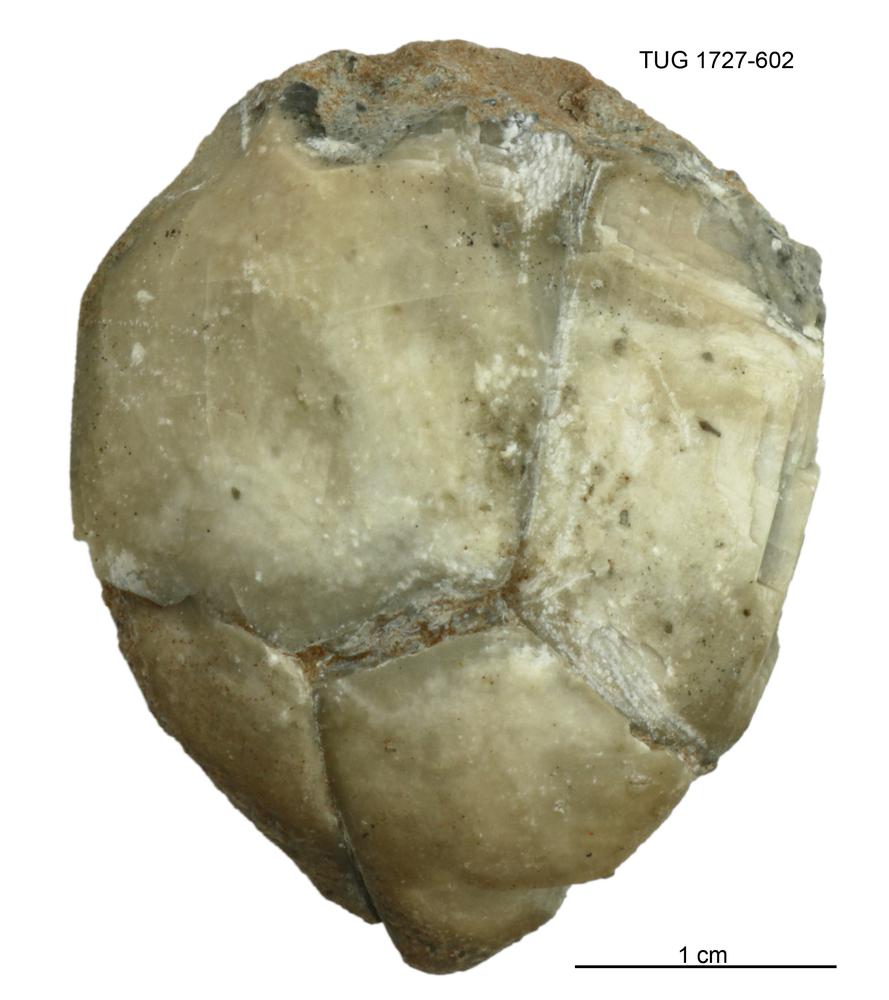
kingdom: Animalia
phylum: Echinodermata
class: Crinoidea
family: Hybocrinidae
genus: Hoplocrinus
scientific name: Hoplocrinus
